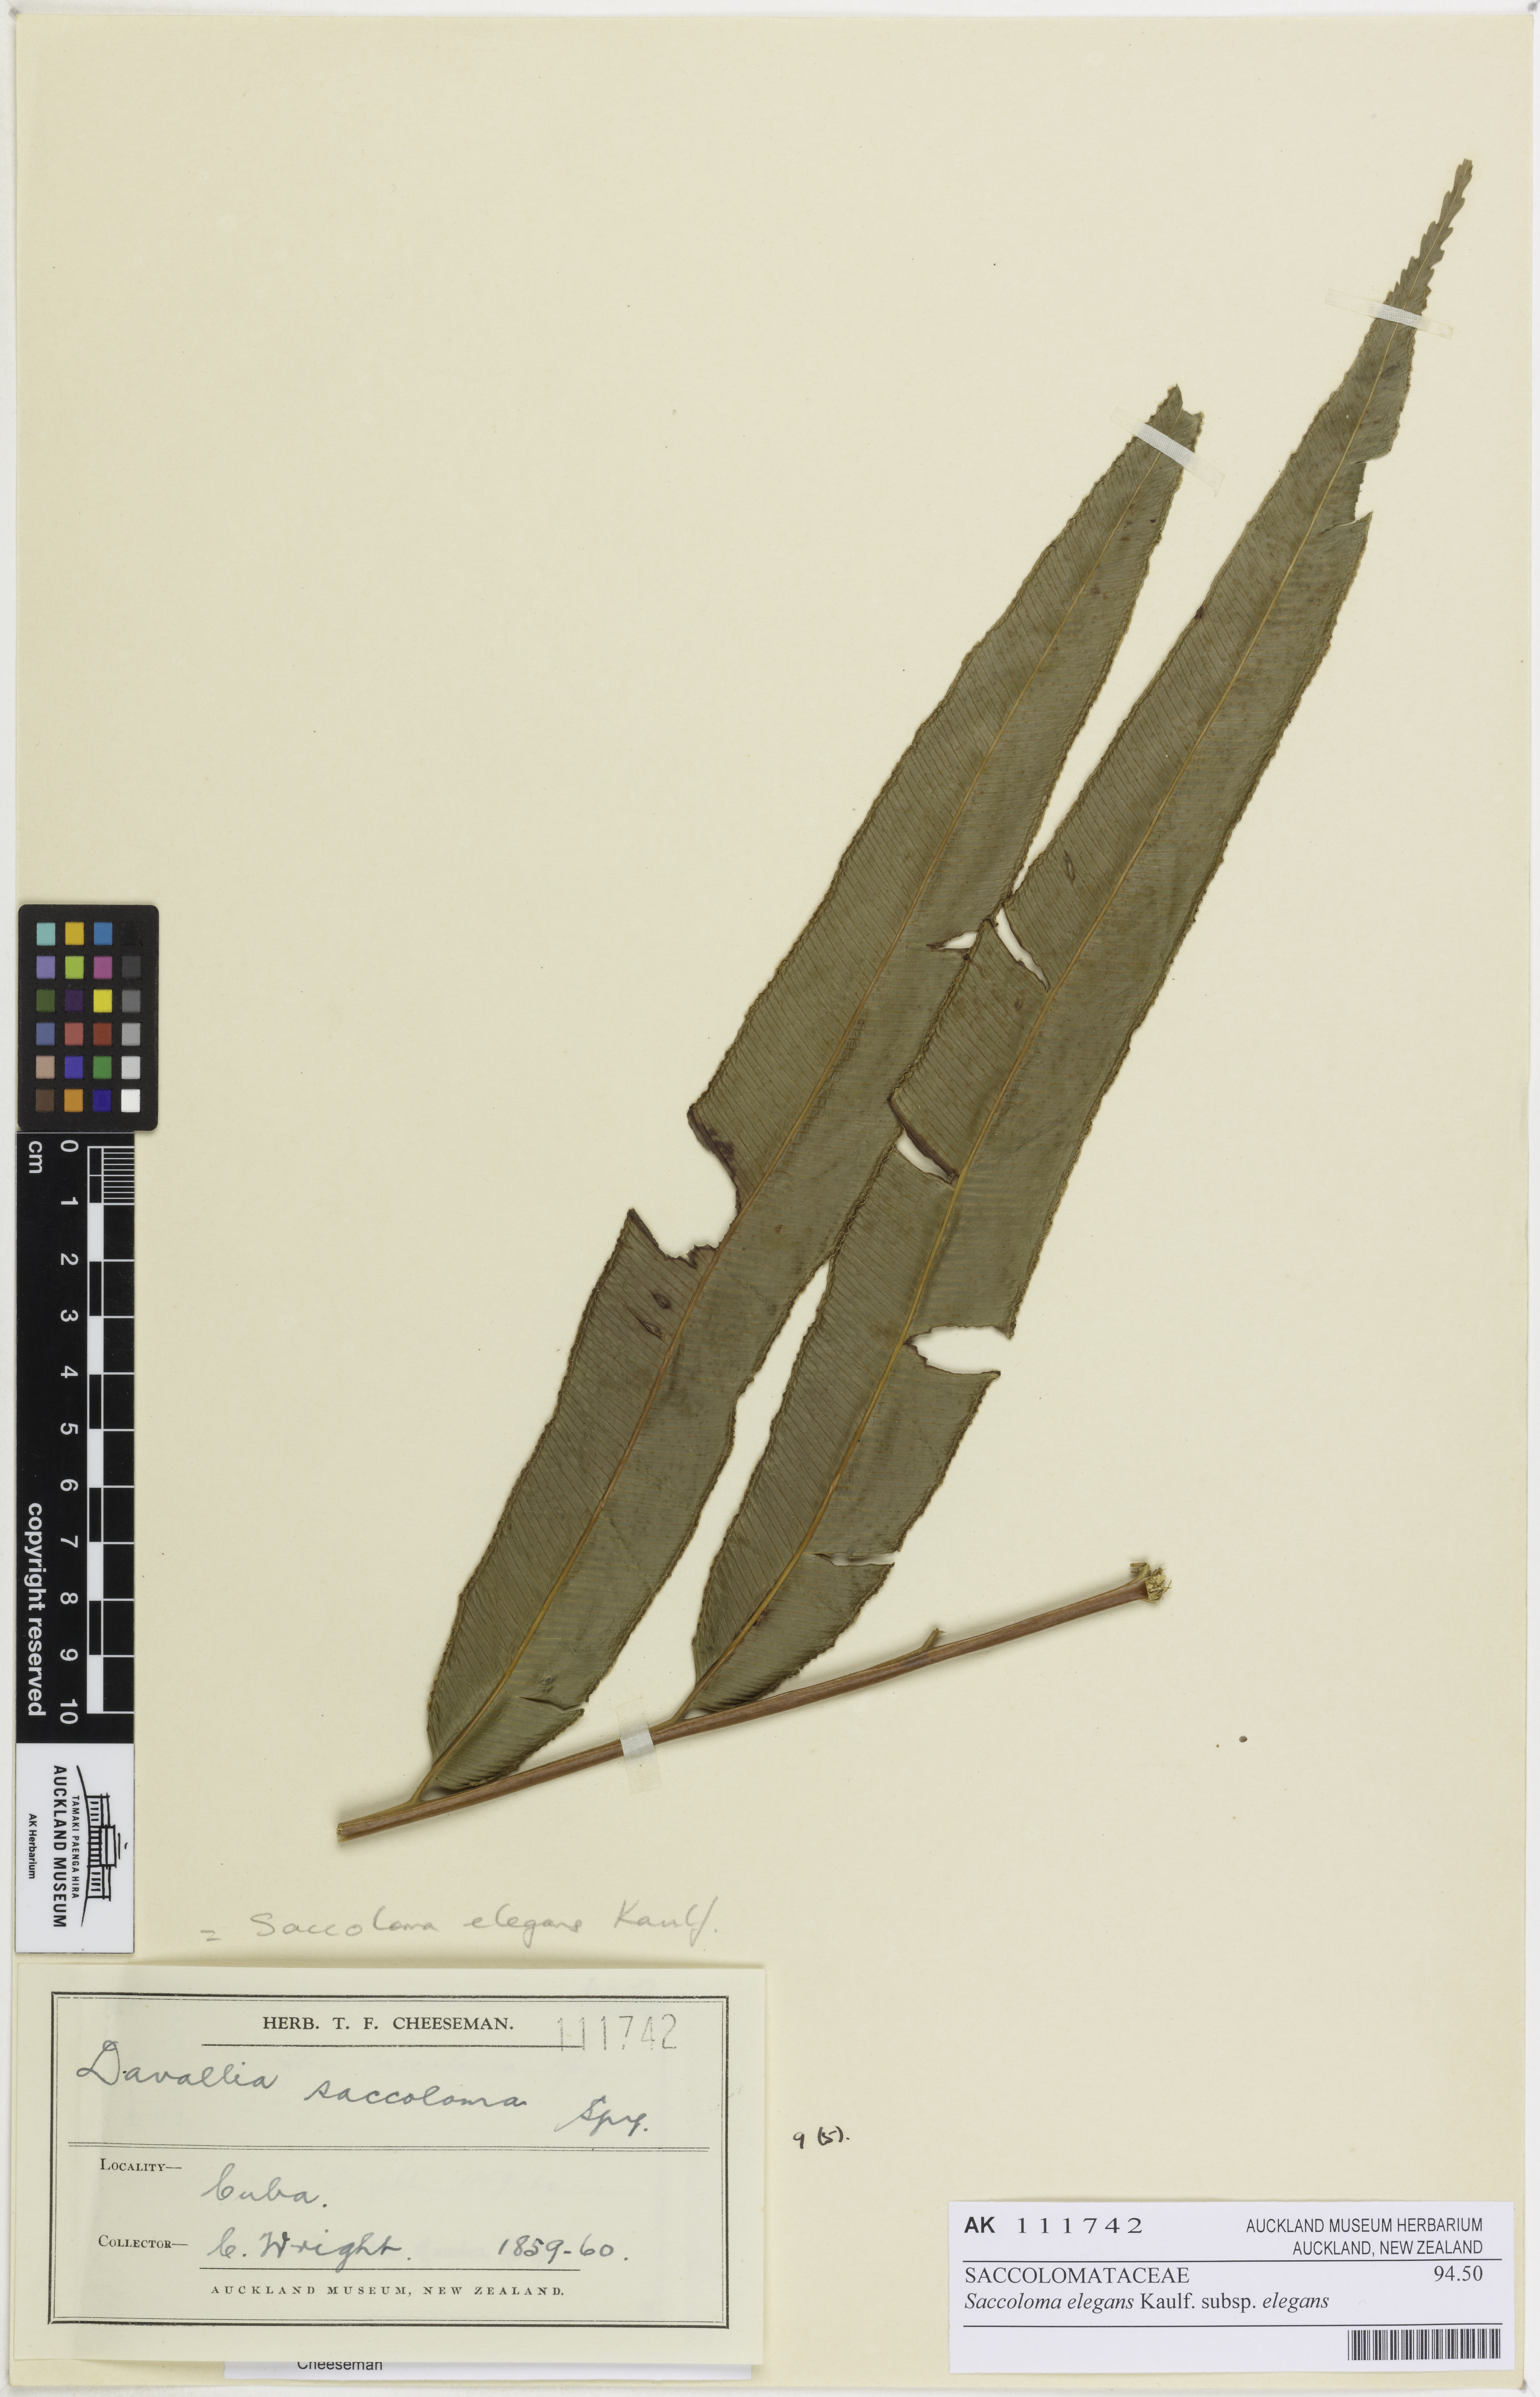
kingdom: Plantae
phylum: Tracheophyta
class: Polypodiopsida
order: Polypodiales
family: Saccolomataceae
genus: Saccoloma
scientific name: Saccoloma elegans
